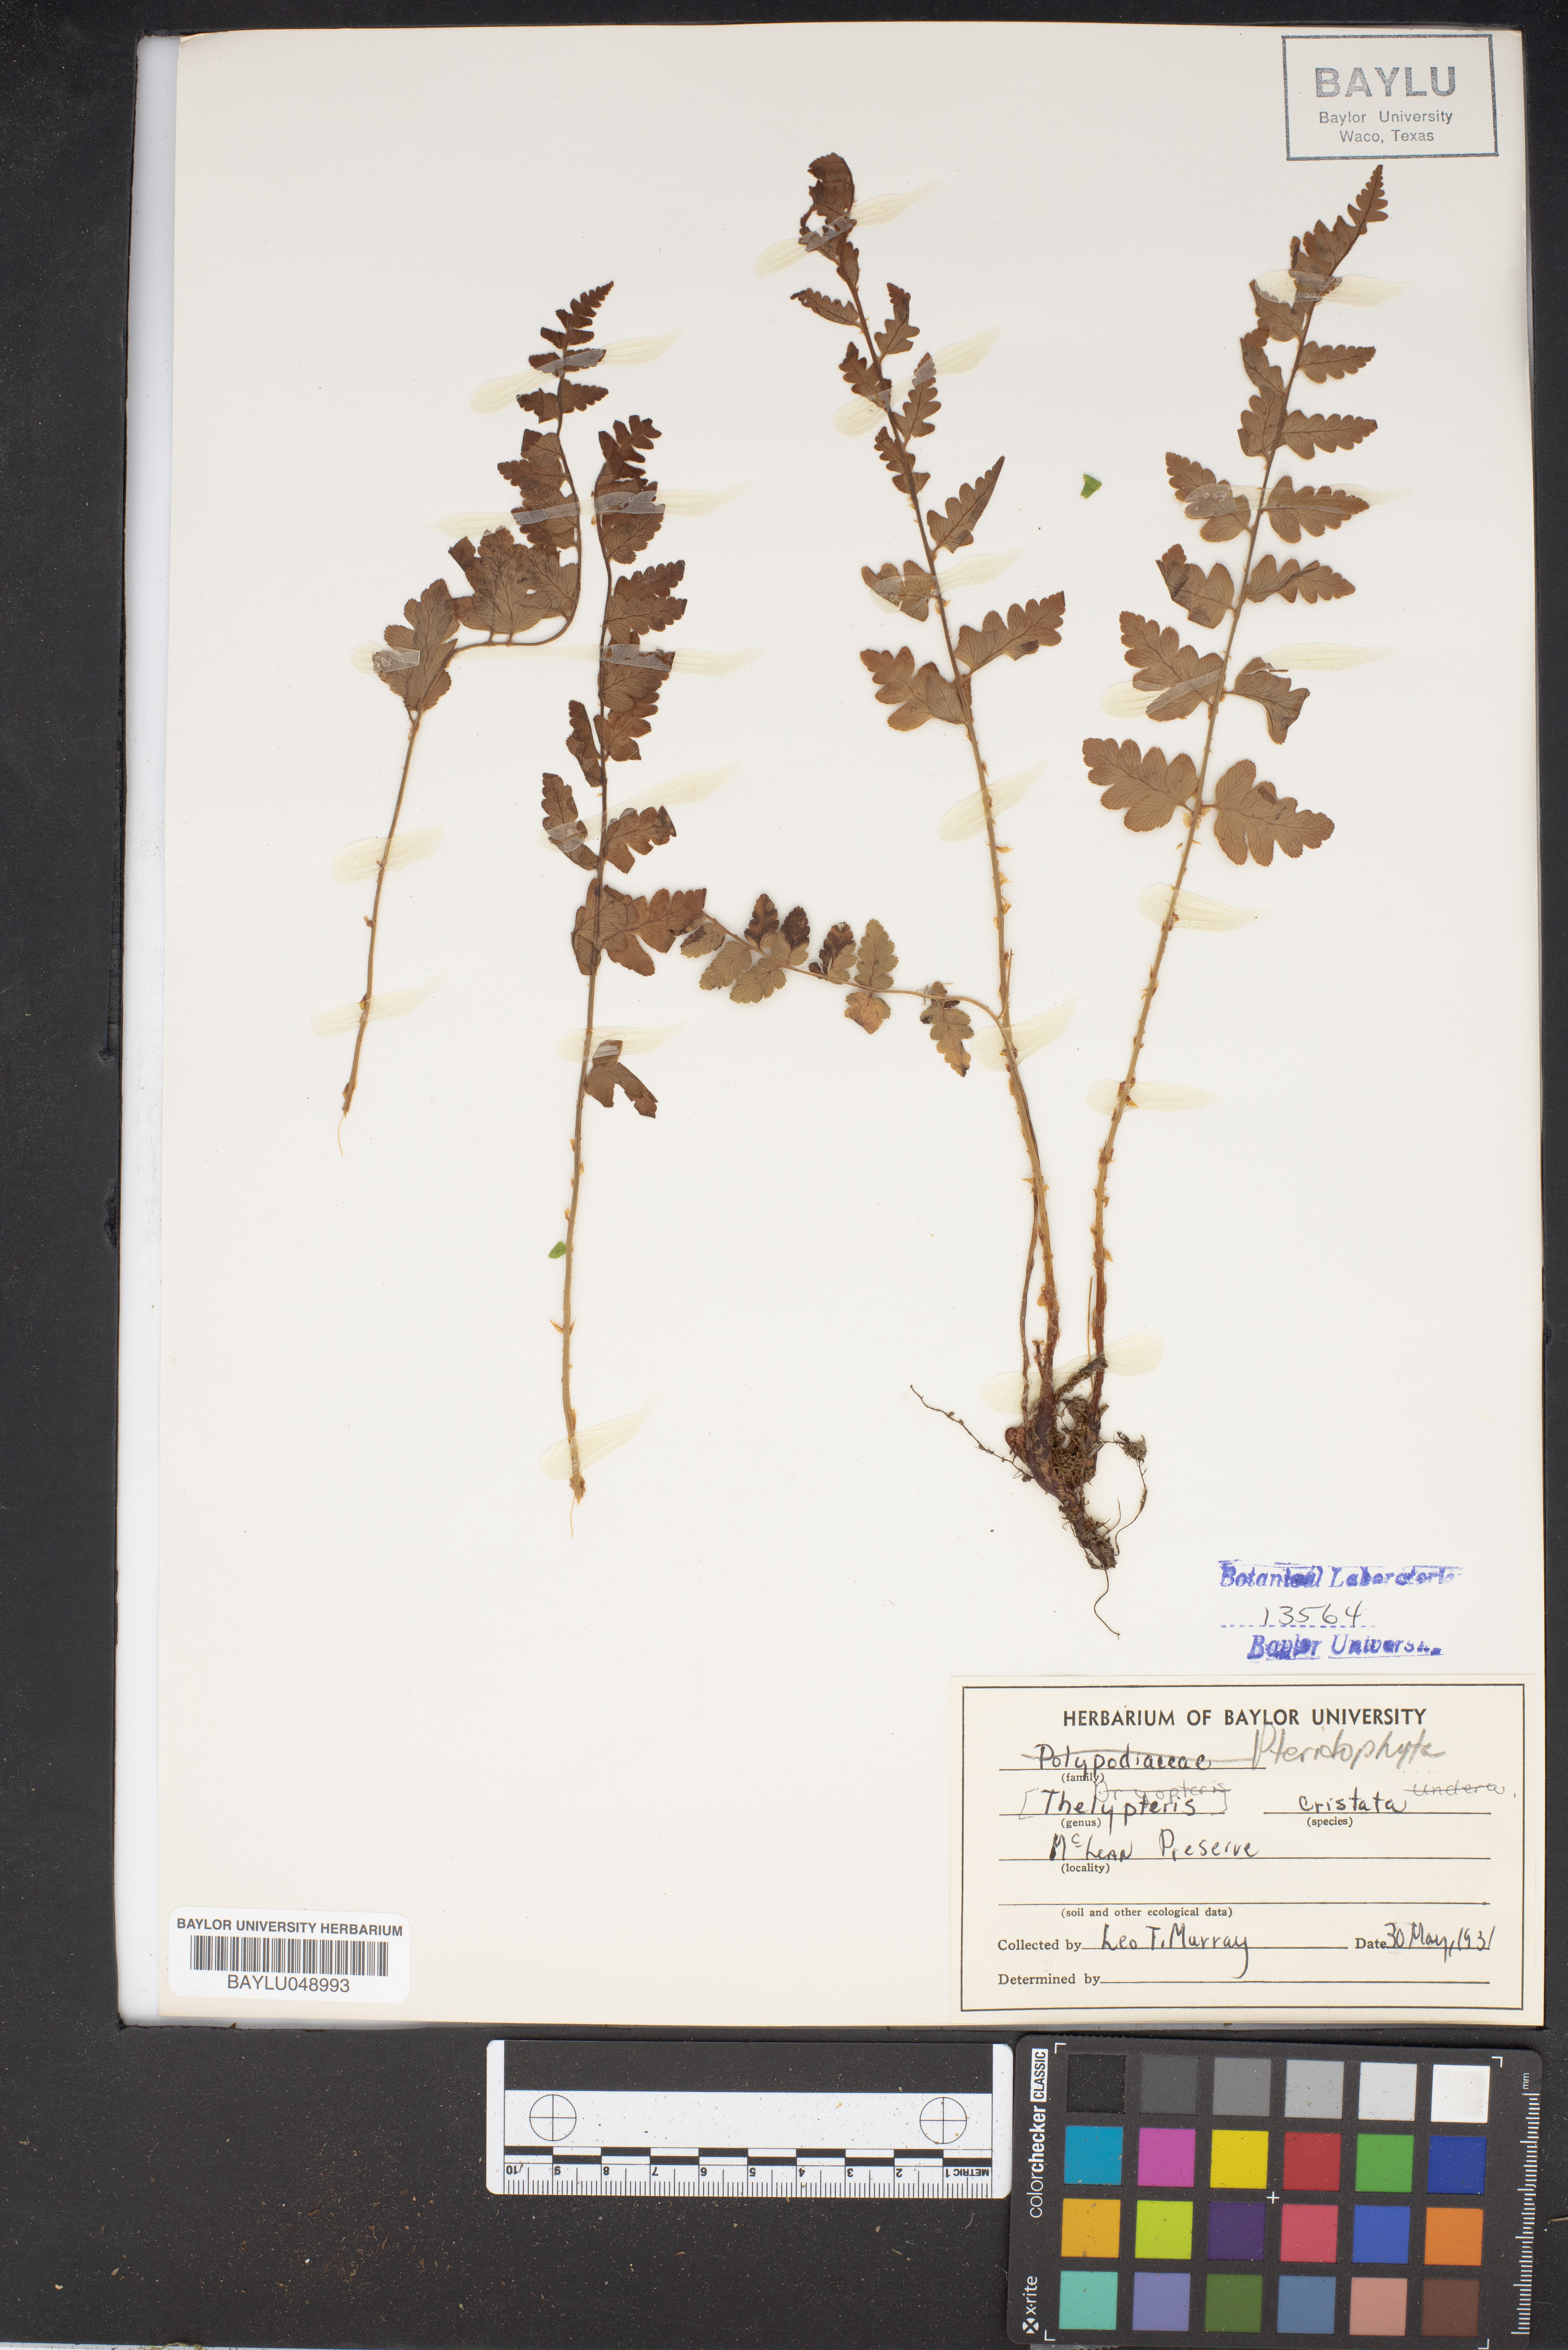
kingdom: Plantae
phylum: Tracheophyta
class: Polypodiopsida
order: Polypodiales
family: Dryopteridaceae
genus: Dryopteris
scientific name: Dryopteris cristata
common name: Crested wood fern
